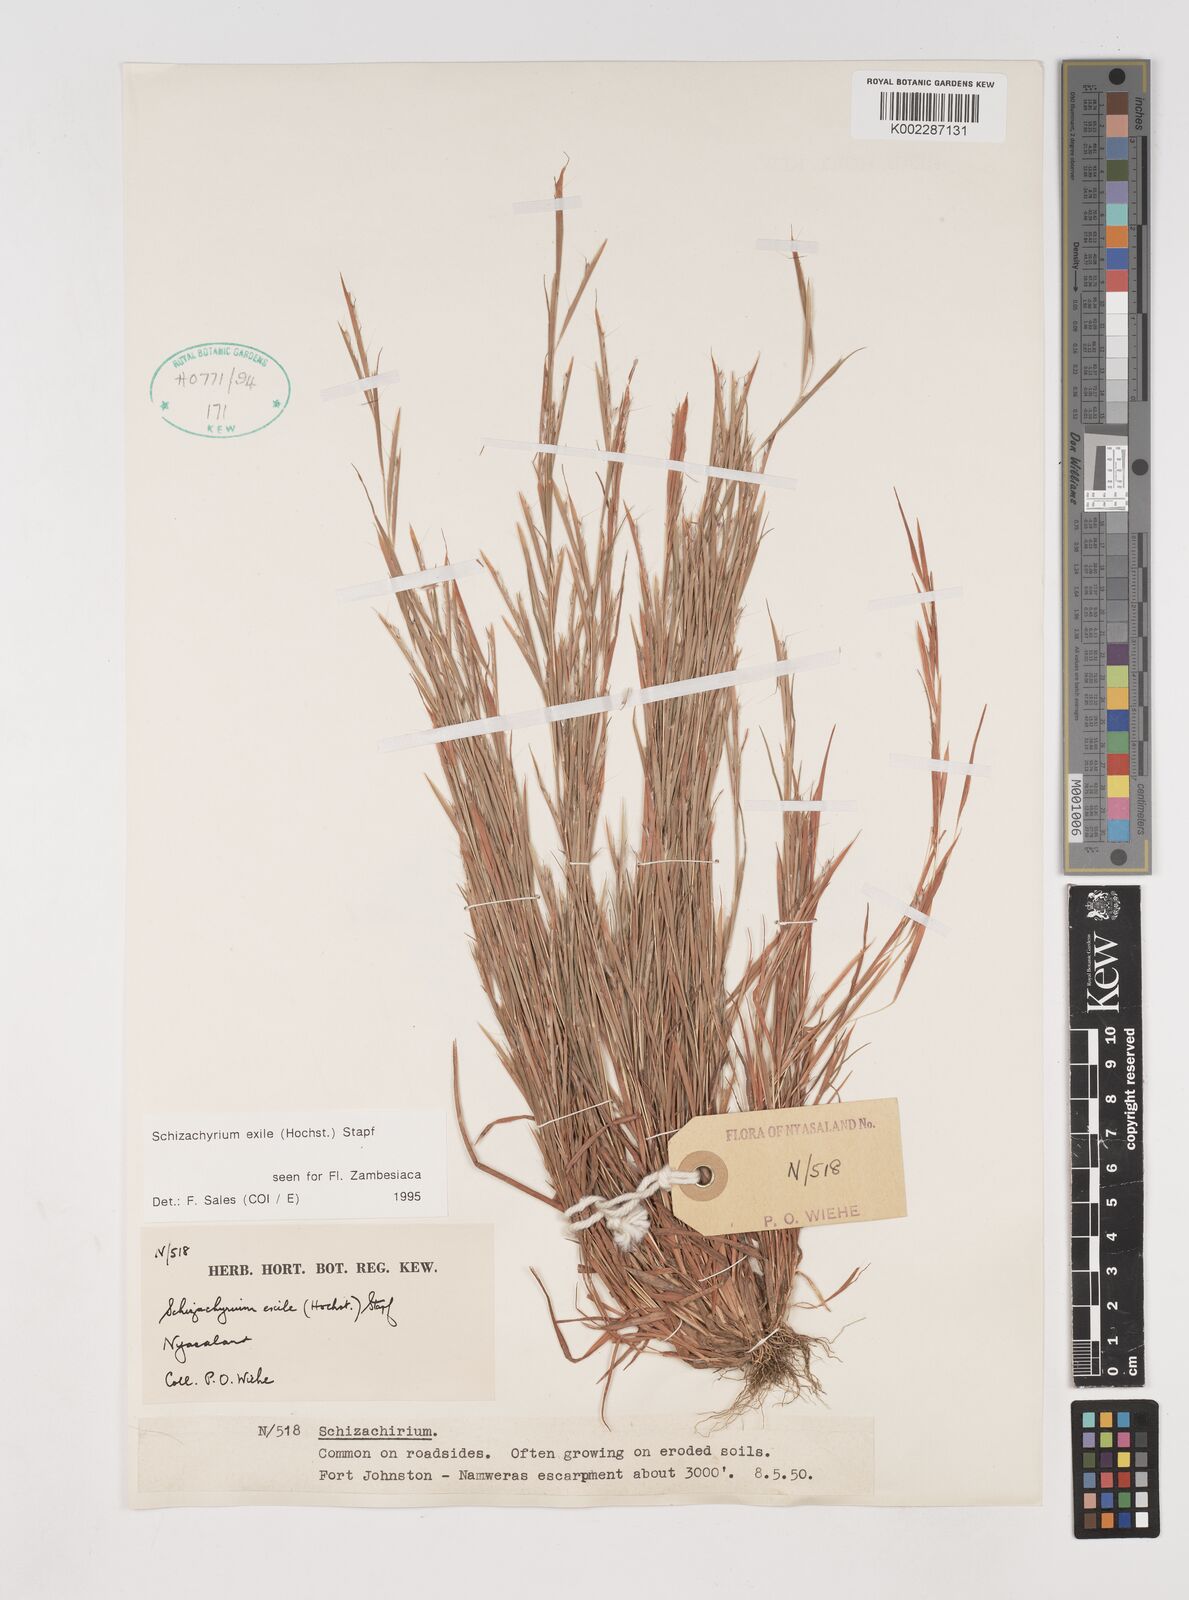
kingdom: Plantae
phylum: Tracheophyta
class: Liliopsida
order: Poales
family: Poaceae
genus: Schizachyrium
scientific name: Schizachyrium exile
